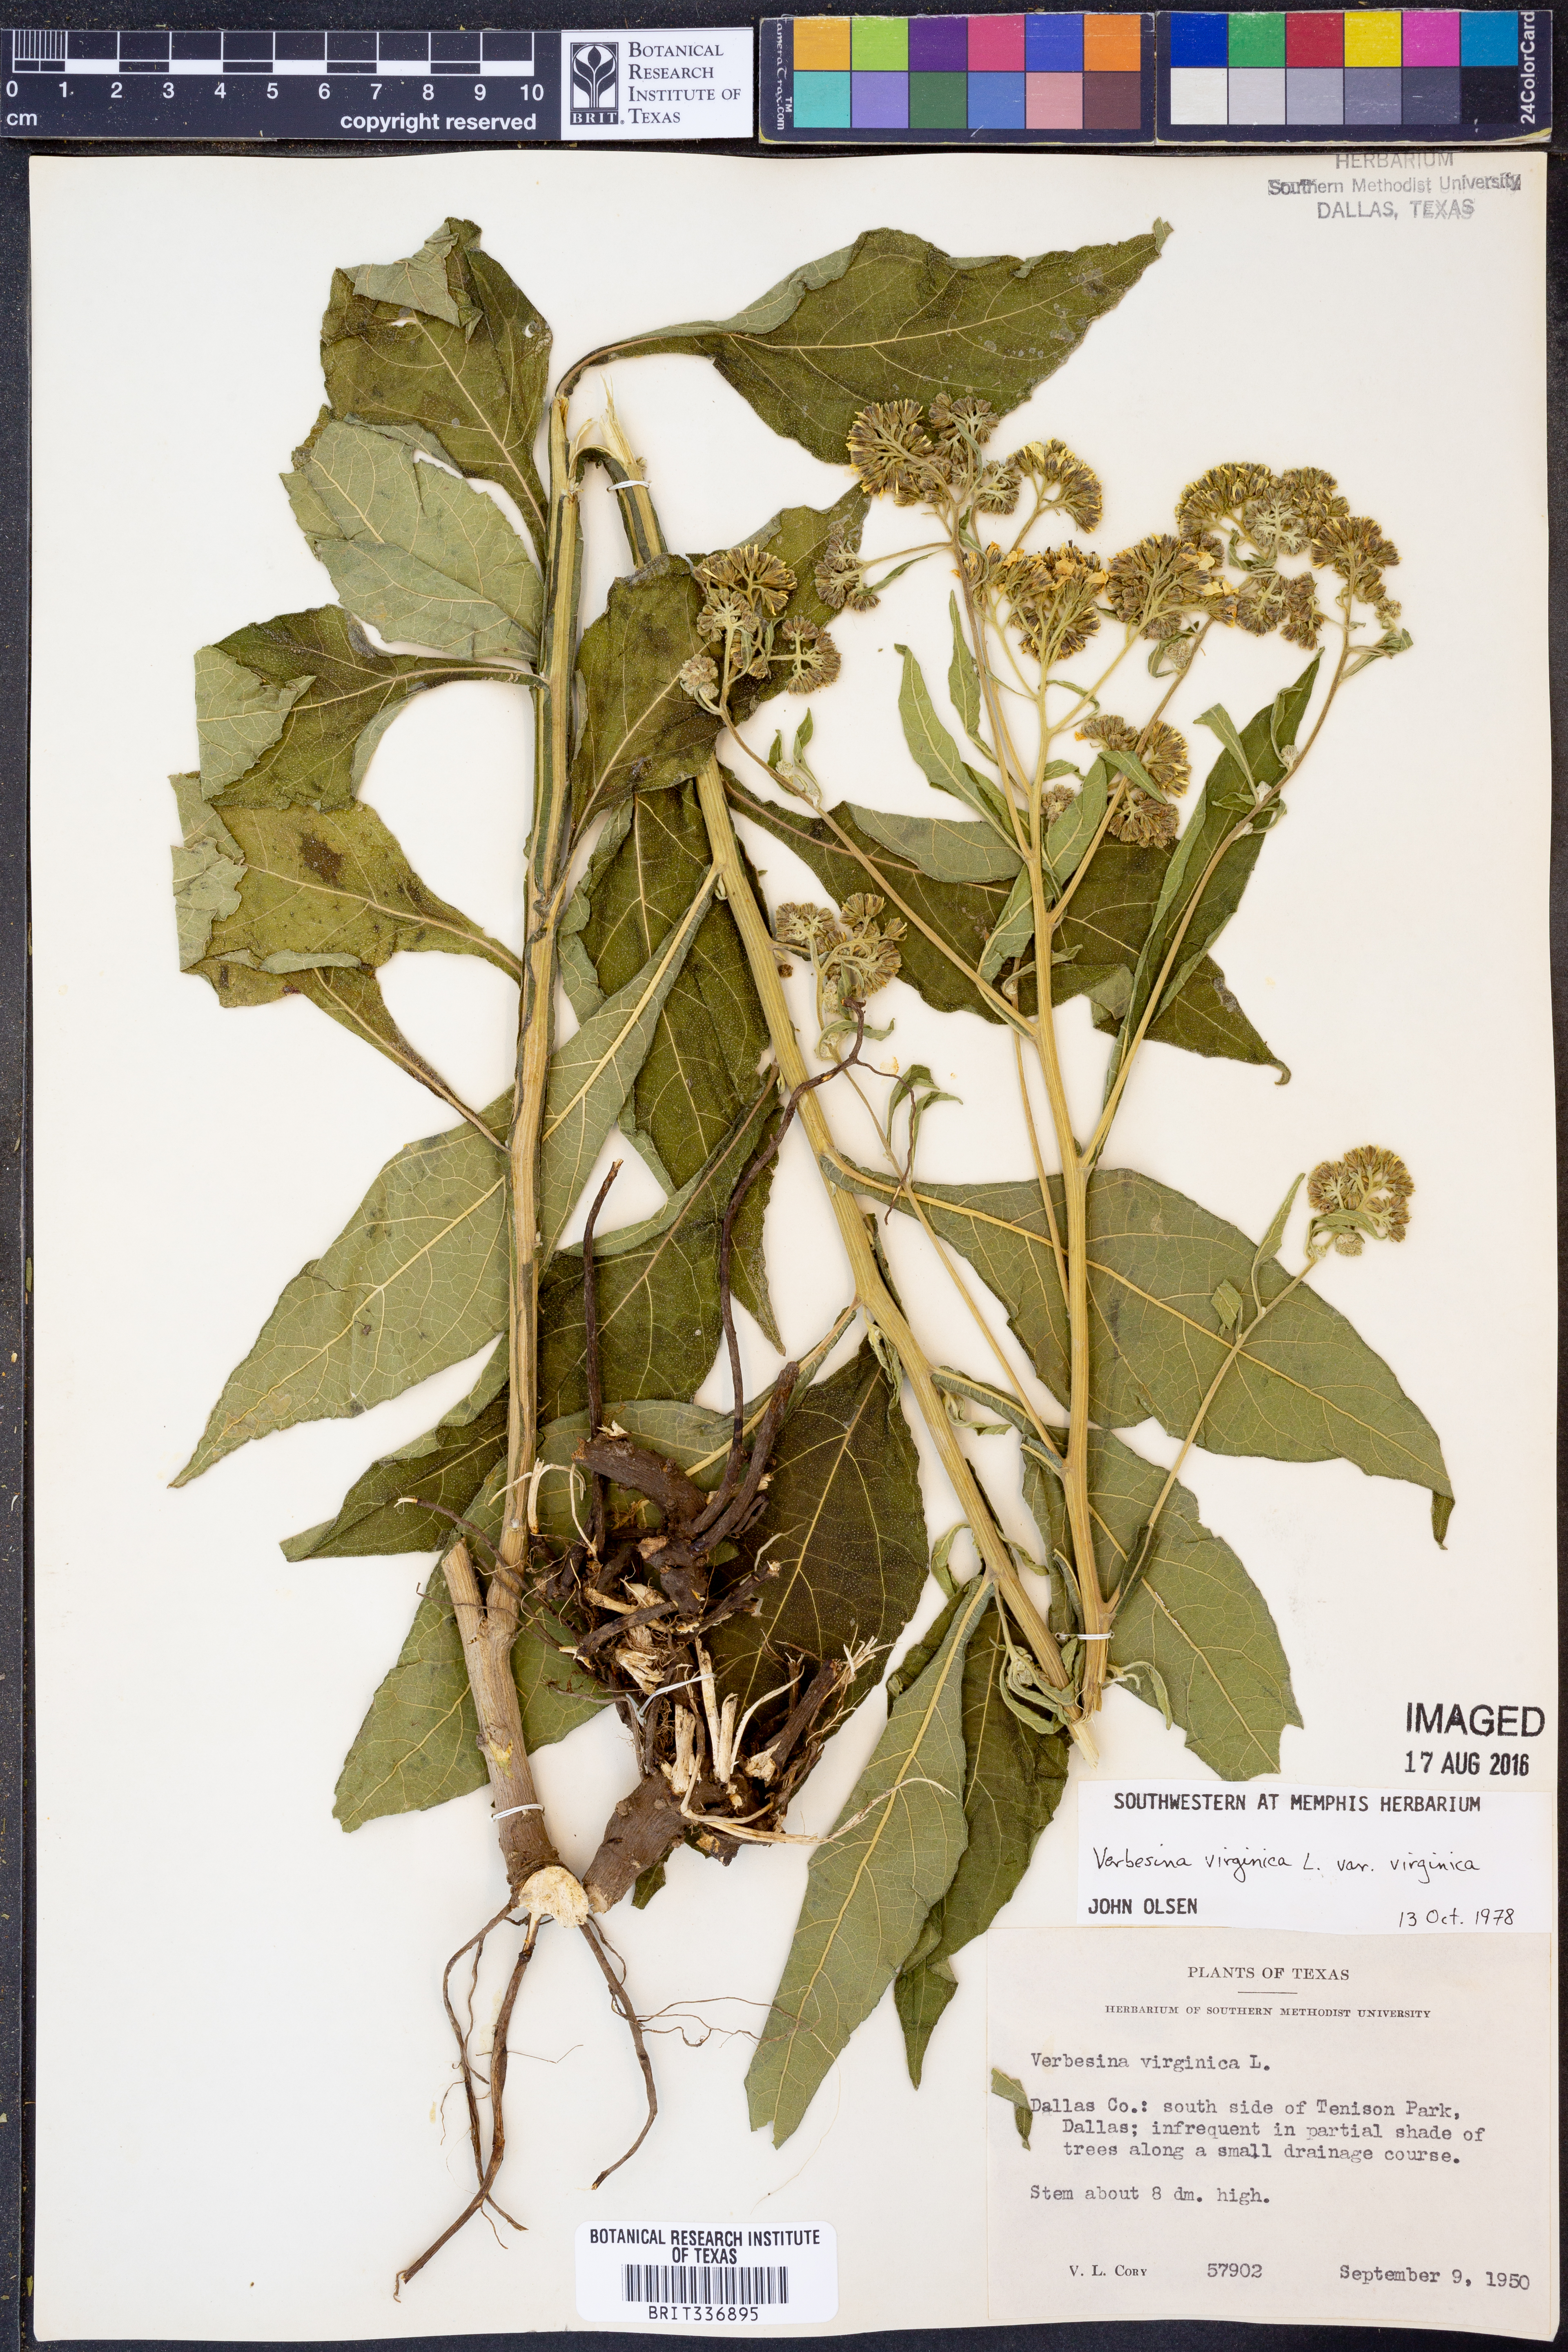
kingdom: Plantae
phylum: Tracheophyta
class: Magnoliopsida
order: Asterales
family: Asteraceae
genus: Verbesina
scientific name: Verbesina virginica
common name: Frostweed
